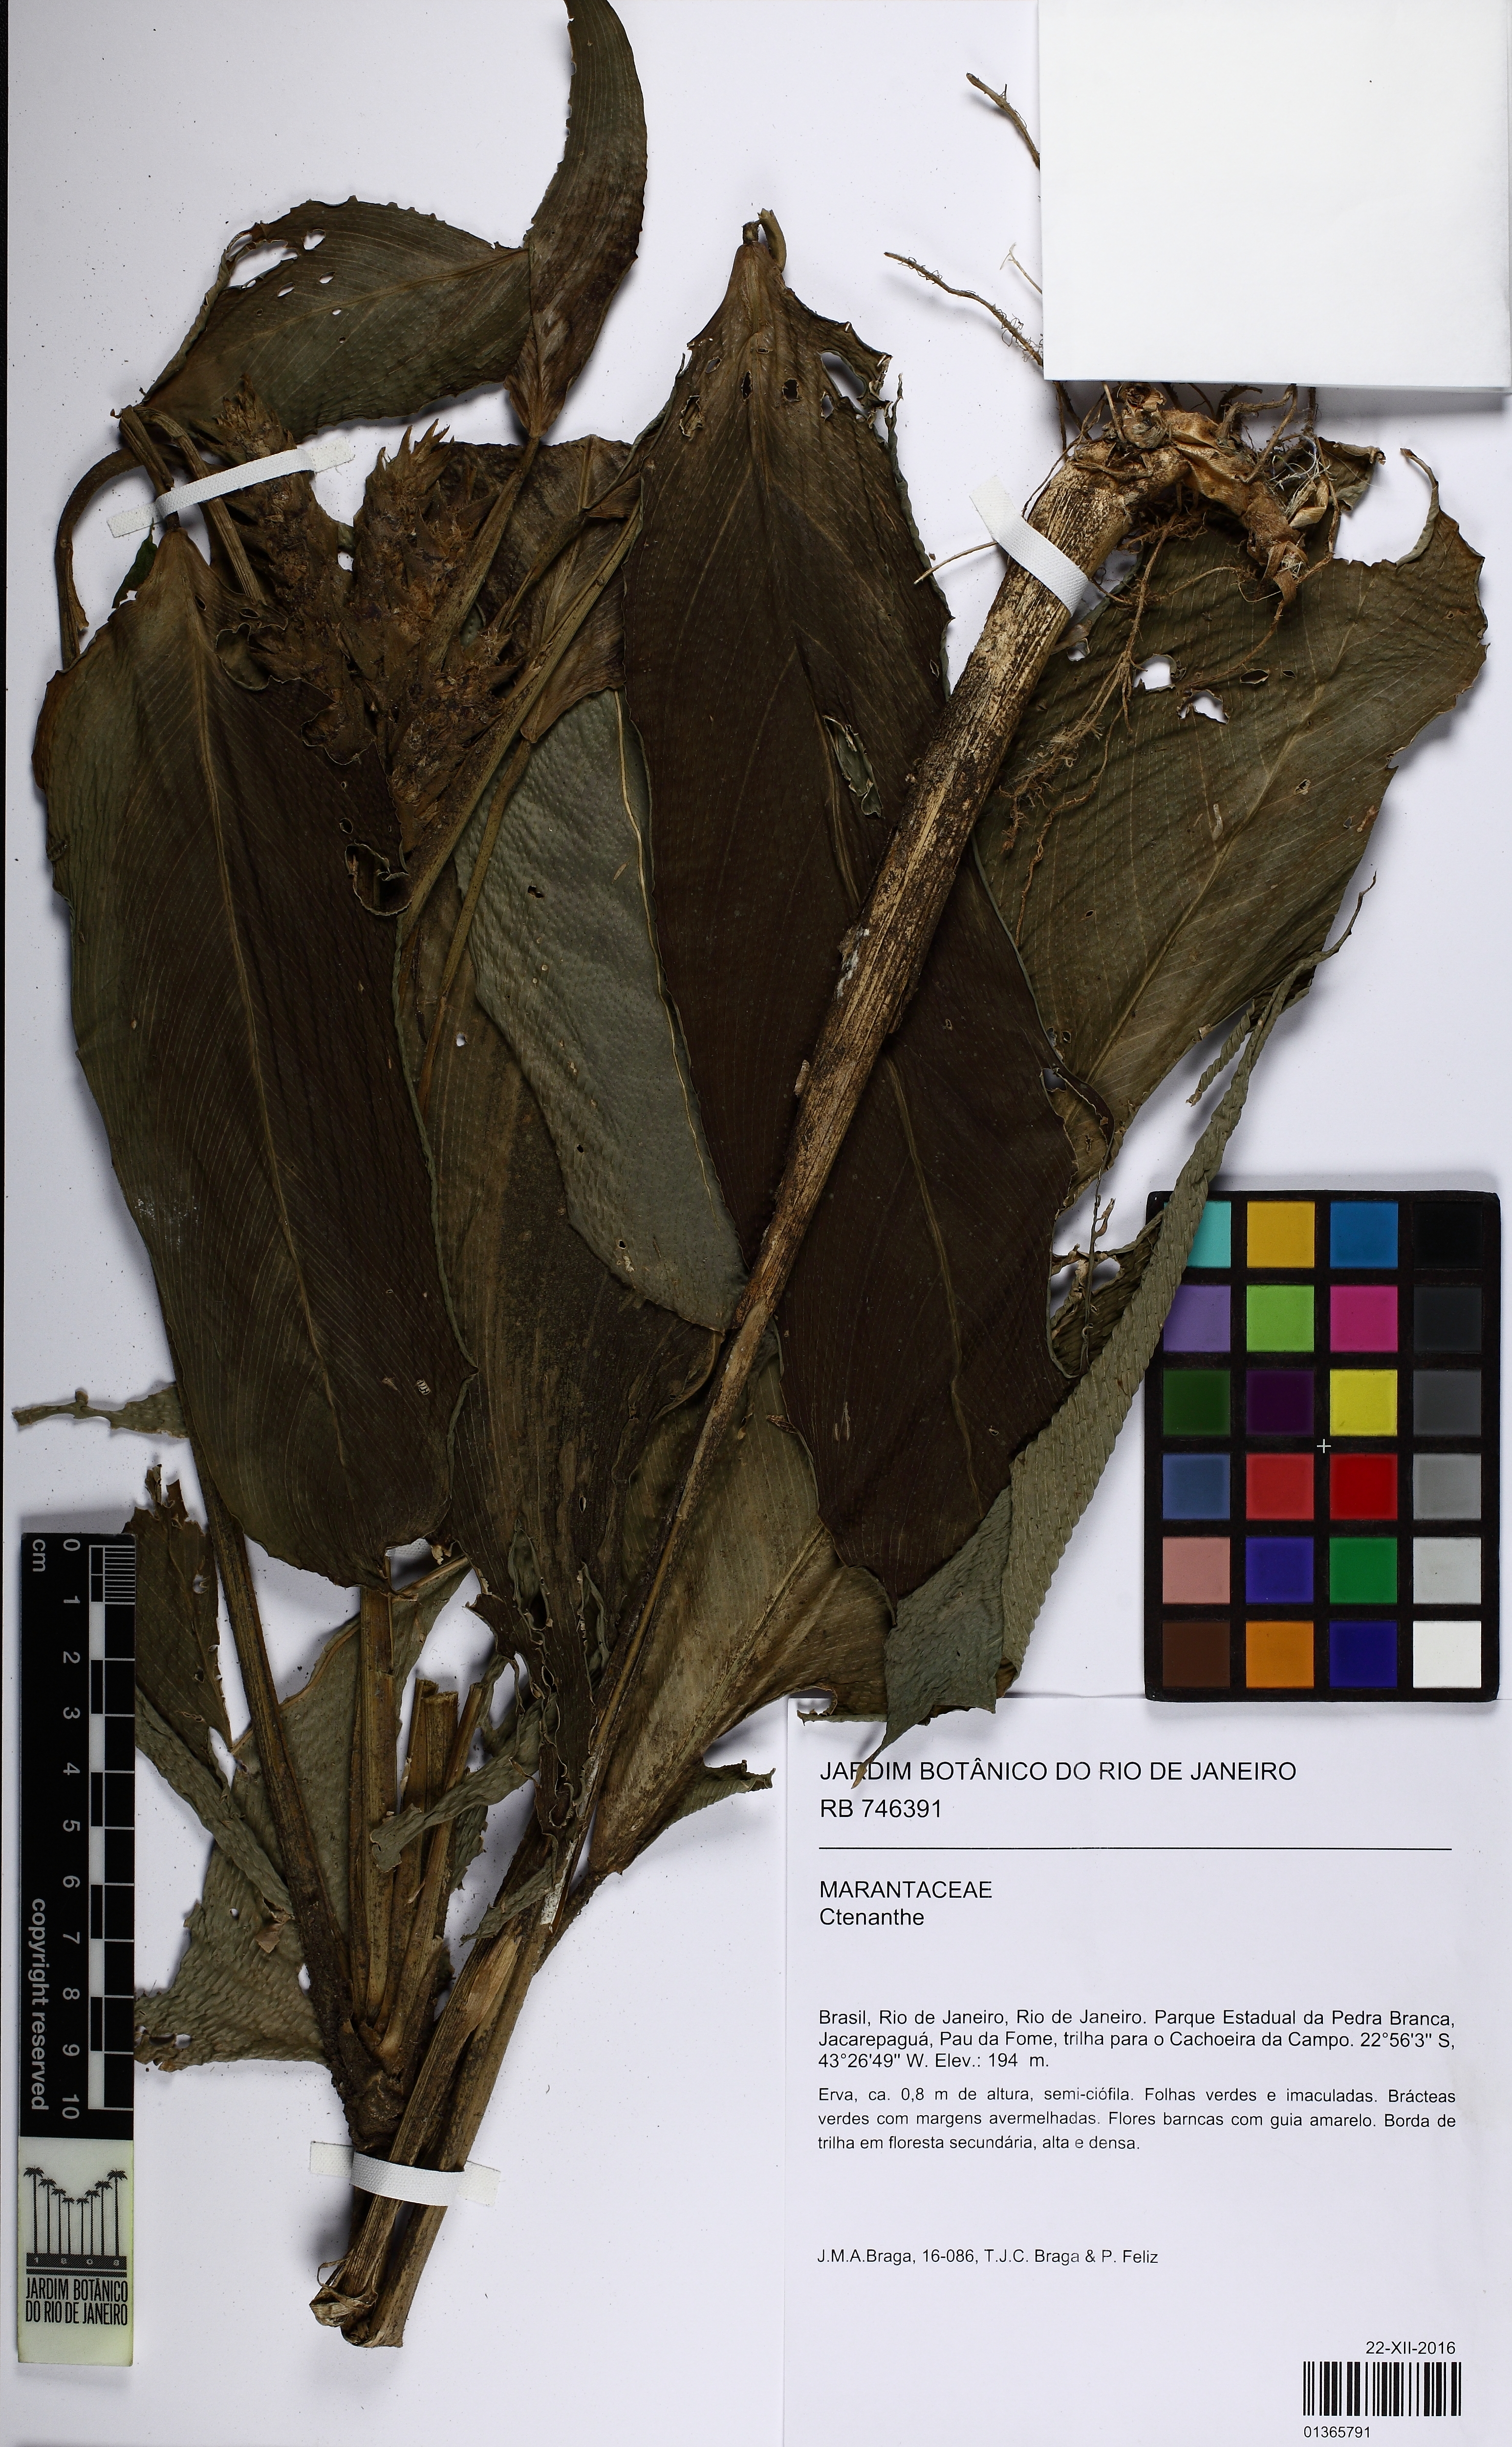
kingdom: Plantae
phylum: Tracheophyta
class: Liliopsida
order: Zingiberales
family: Marantaceae
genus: Ctenanthe
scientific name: Ctenanthe
